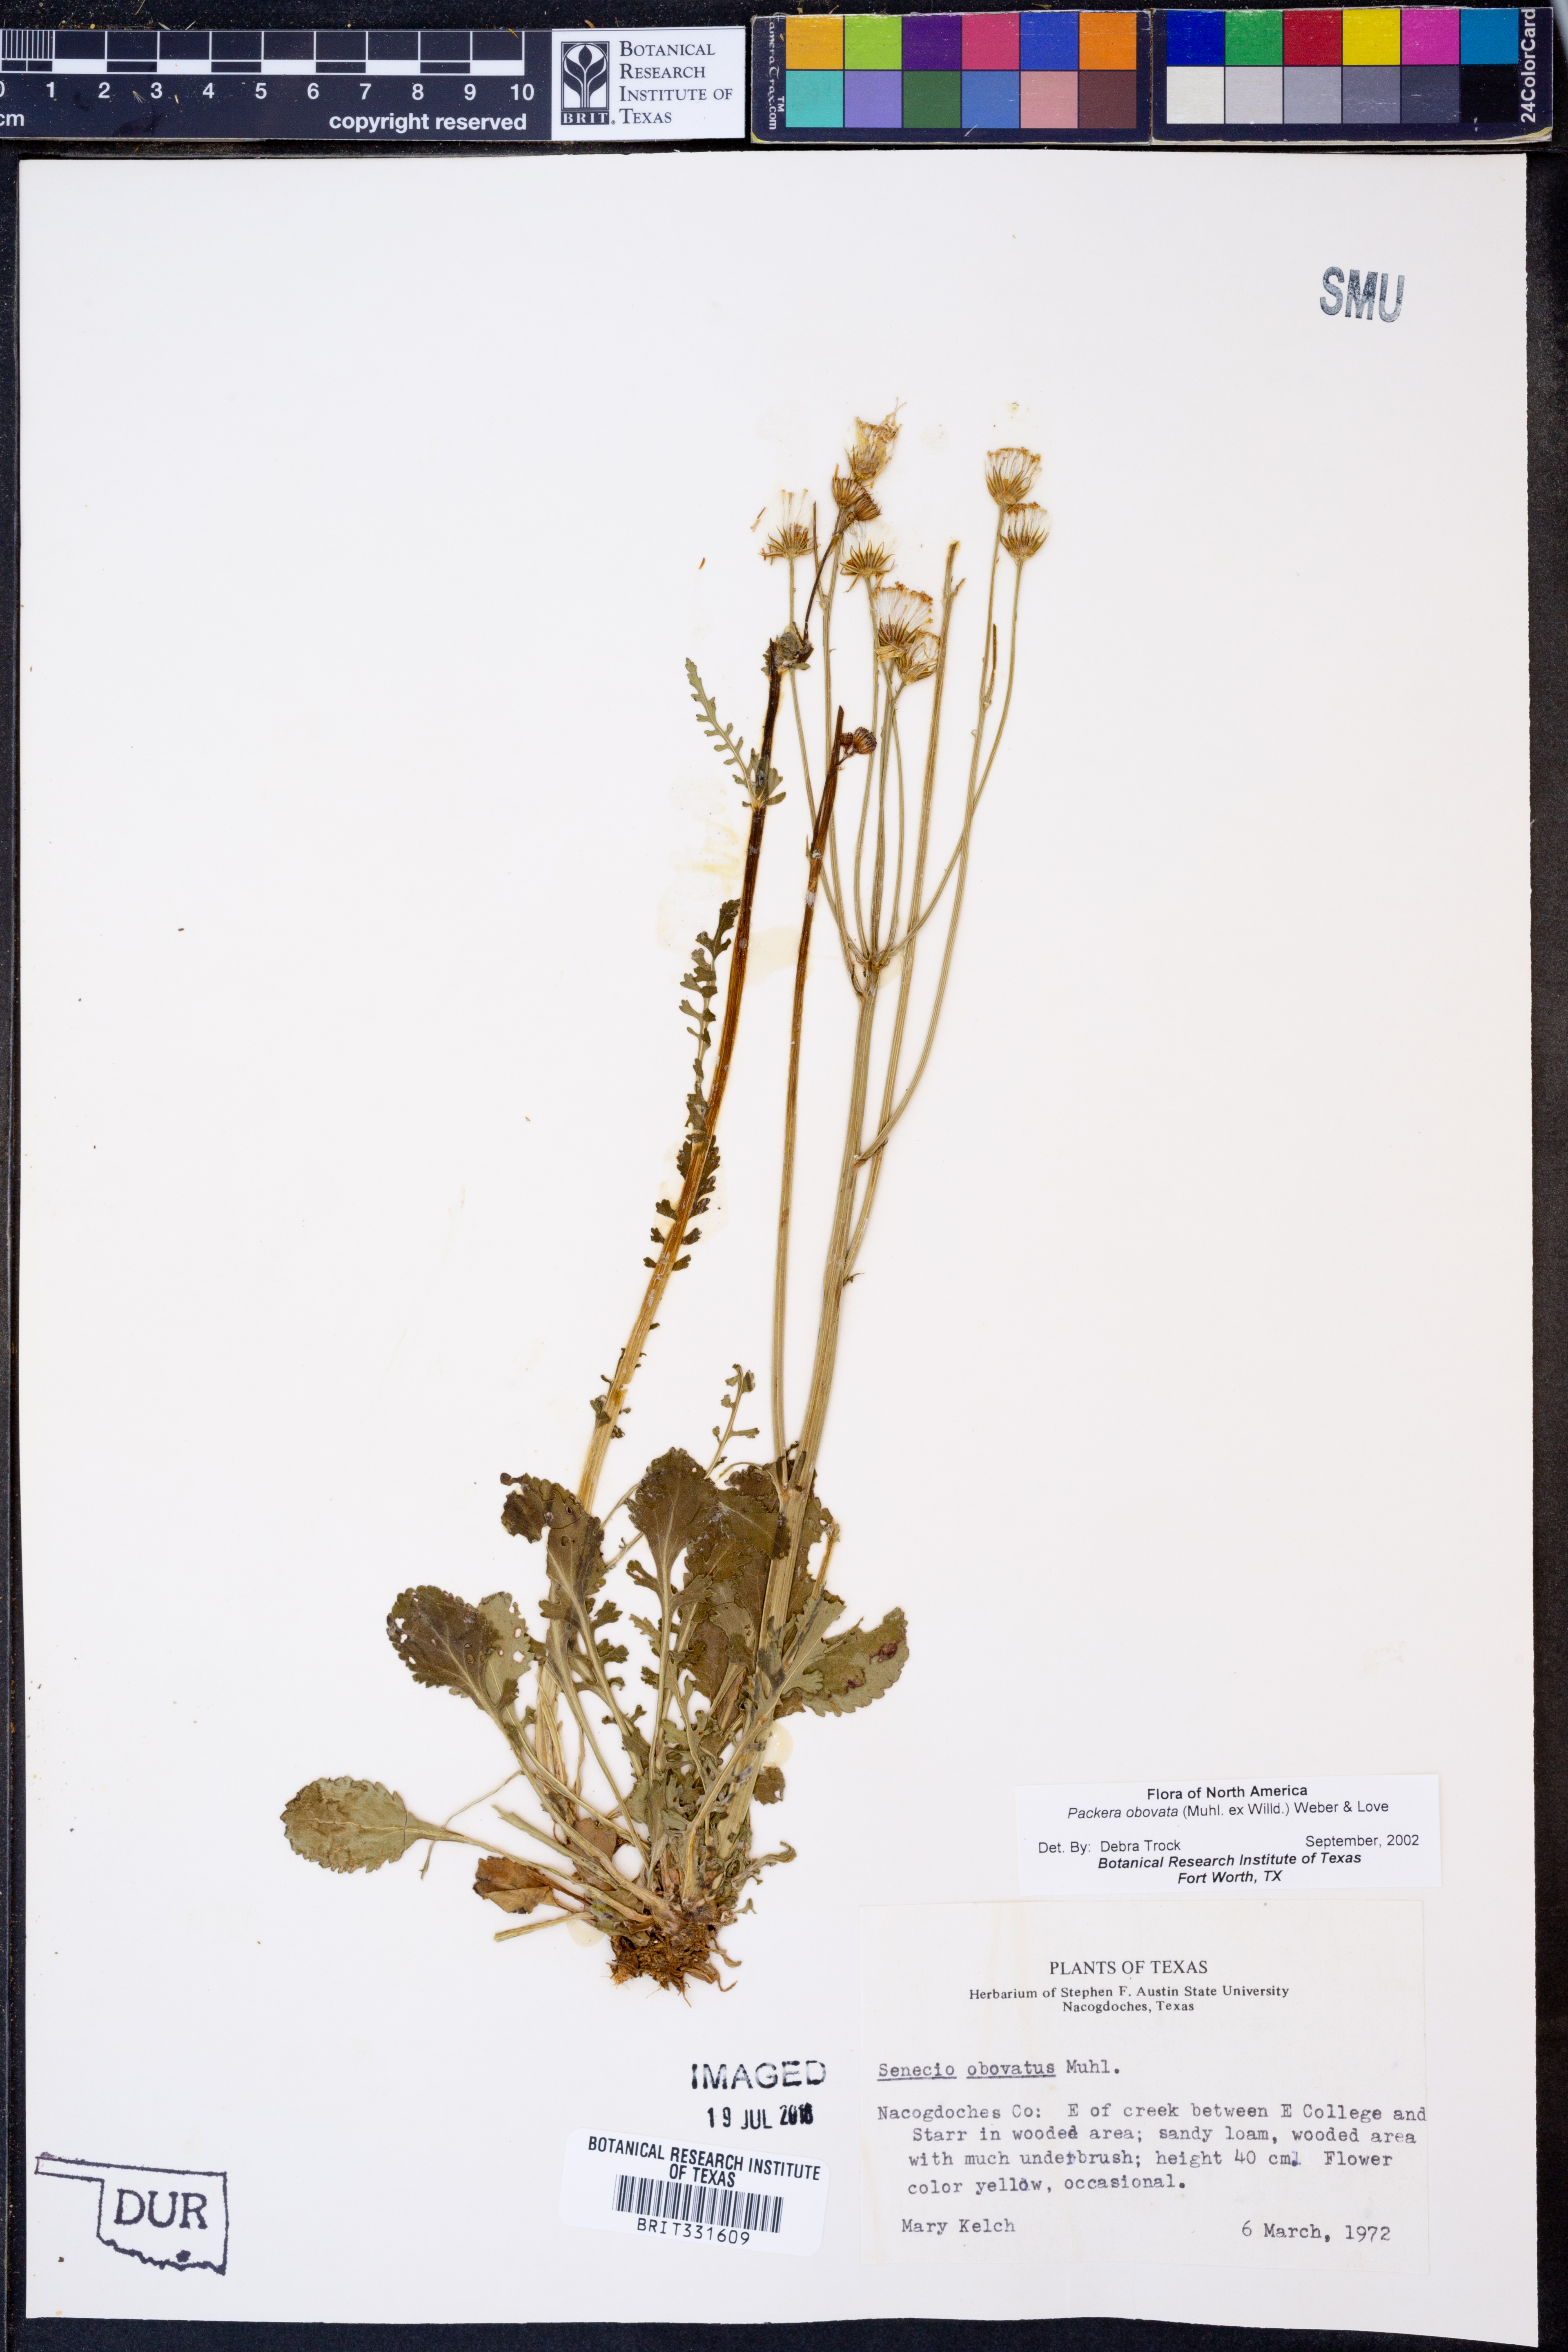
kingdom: Plantae
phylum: Tracheophyta
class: Magnoliopsida
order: Asterales
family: Asteraceae
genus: Packera
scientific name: Packera obovata
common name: Round-leaf ragwort
